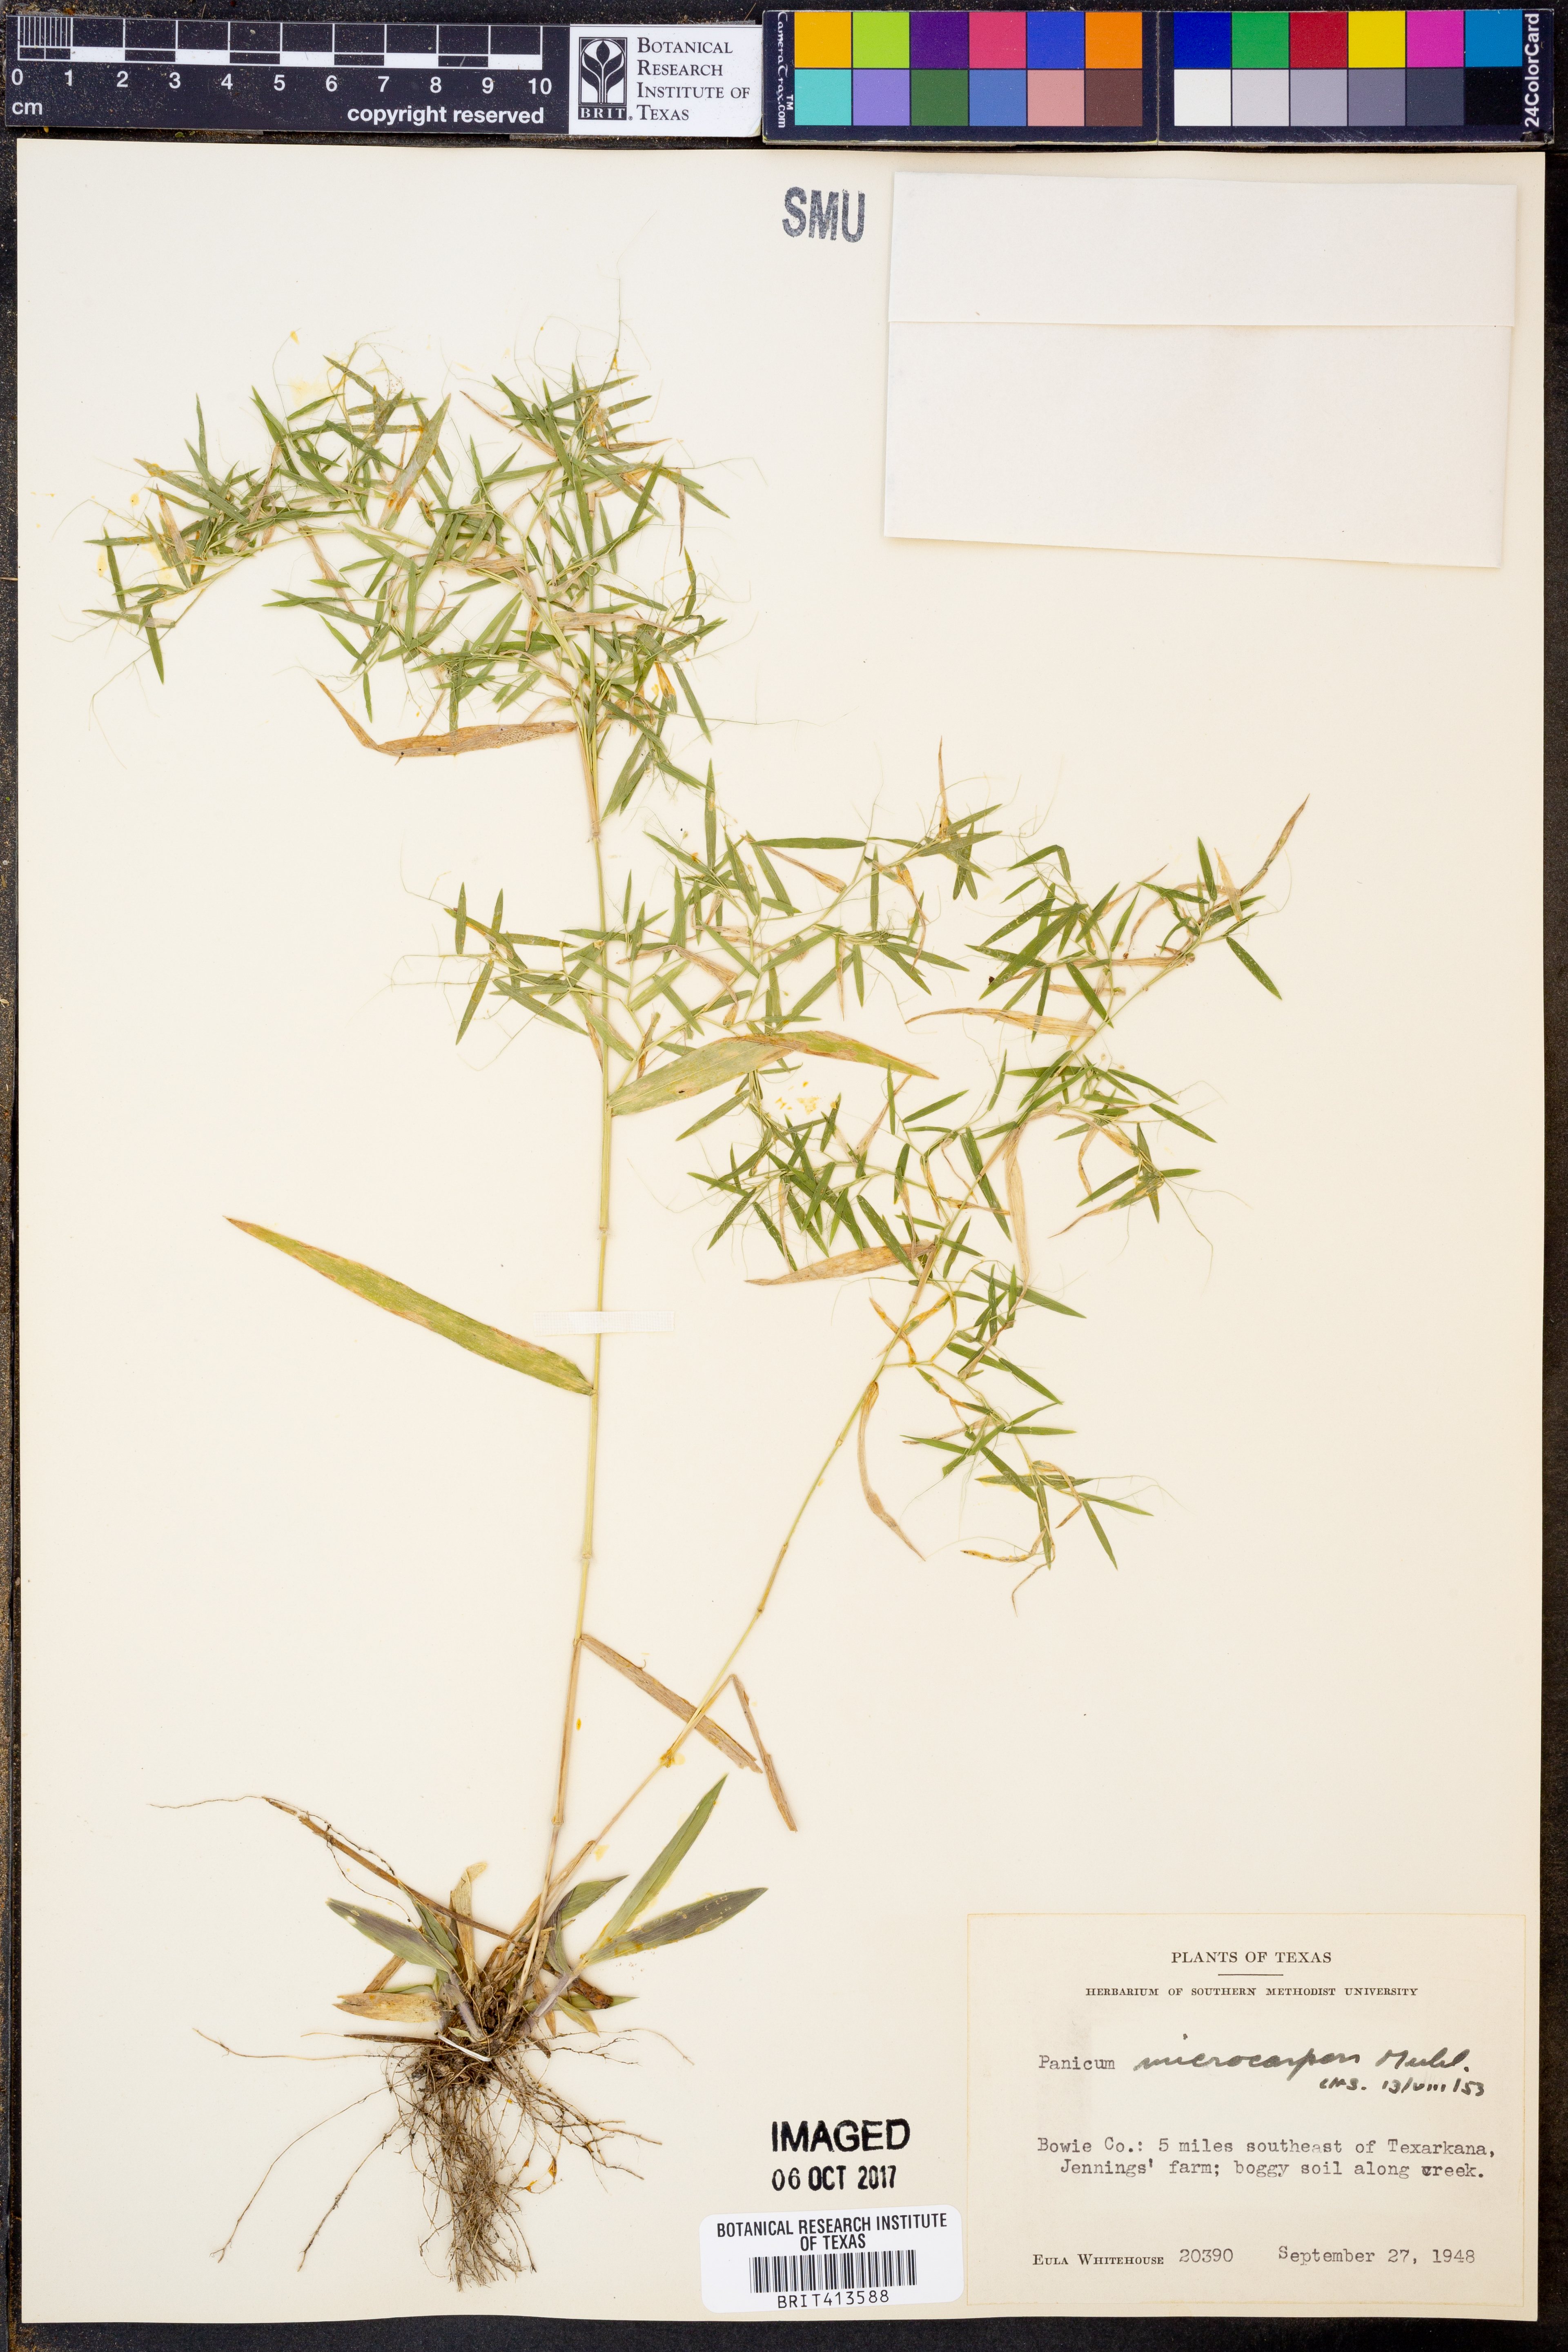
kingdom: Plantae
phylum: Tracheophyta
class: Liliopsida
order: Poales
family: Poaceae
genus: Dichanthelium
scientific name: Dichanthelium polyanthes
